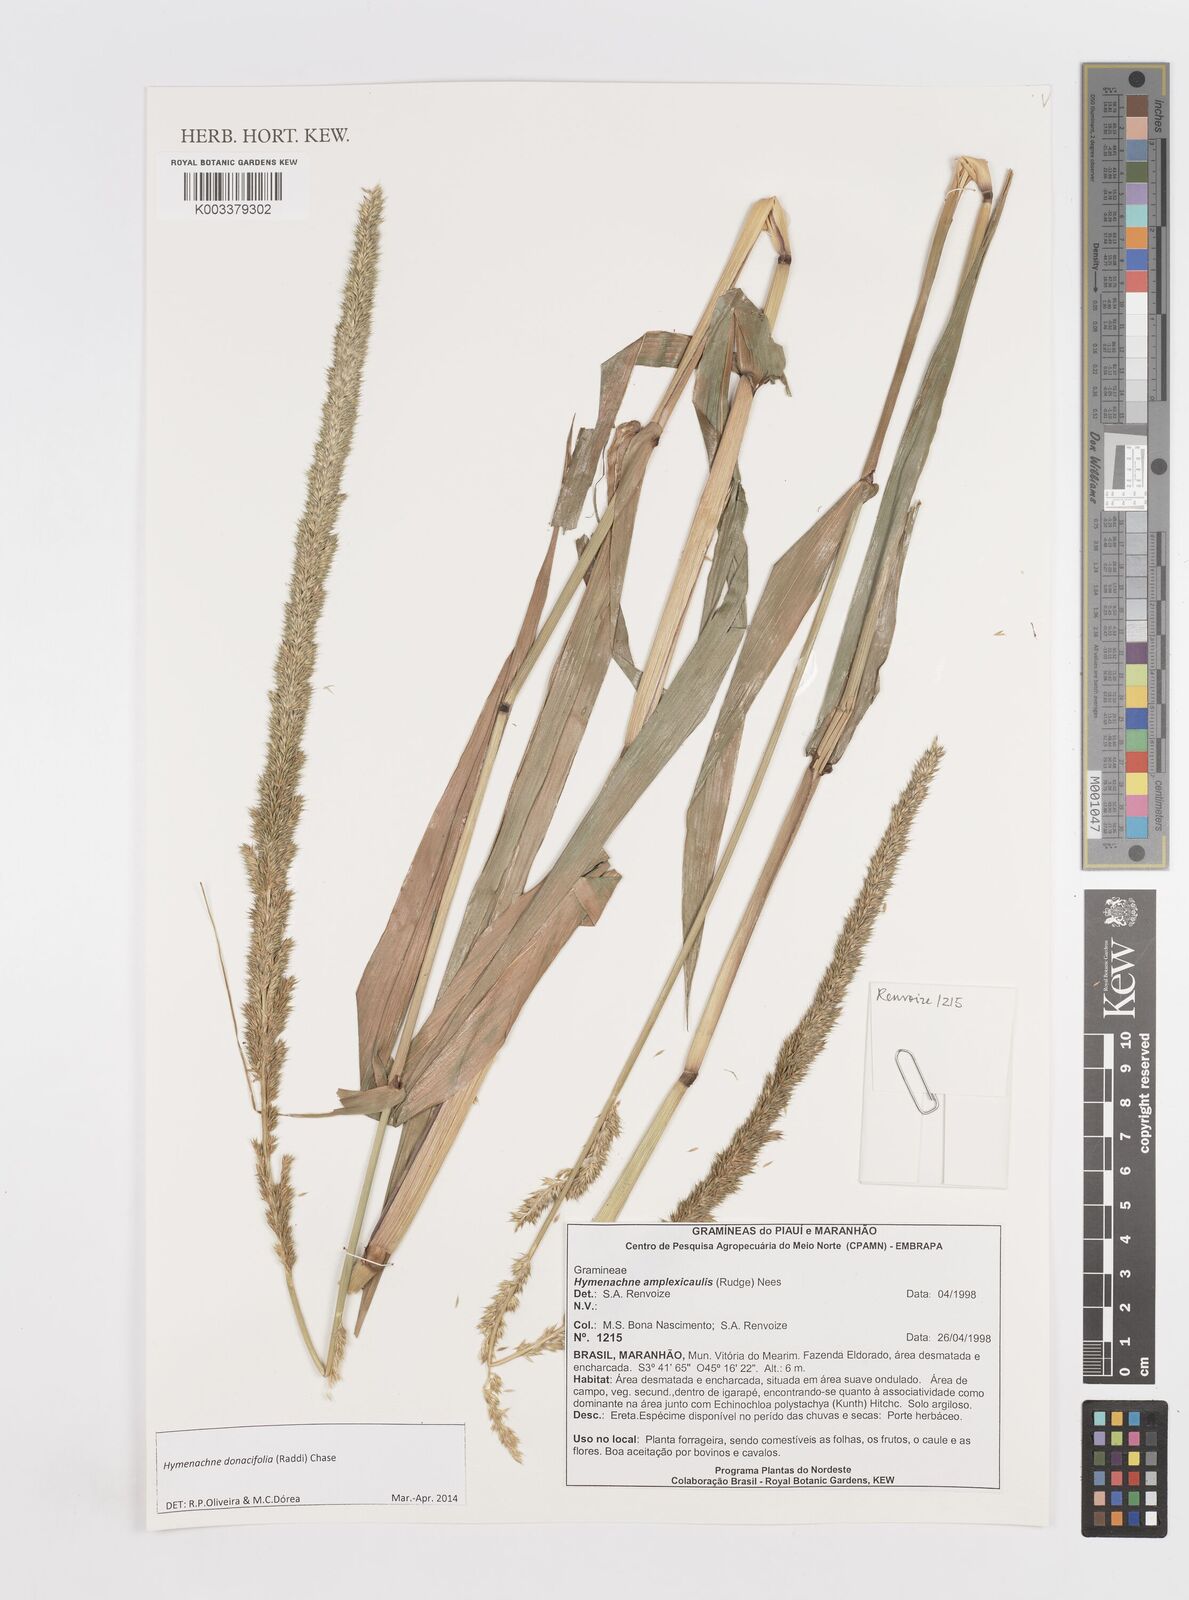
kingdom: Plantae
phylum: Tracheophyta
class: Liliopsida
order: Poales
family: Poaceae
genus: Hymenachne
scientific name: Hymenachne amplexicaulis
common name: Olive hymenachne
